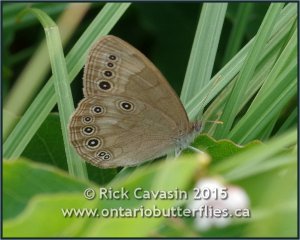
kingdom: Animalia
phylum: Arthropoda
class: Insecta
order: Lepidoptera
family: Nymphalidae
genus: Lethe
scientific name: Lethe eurydice
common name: Eyed Brown
